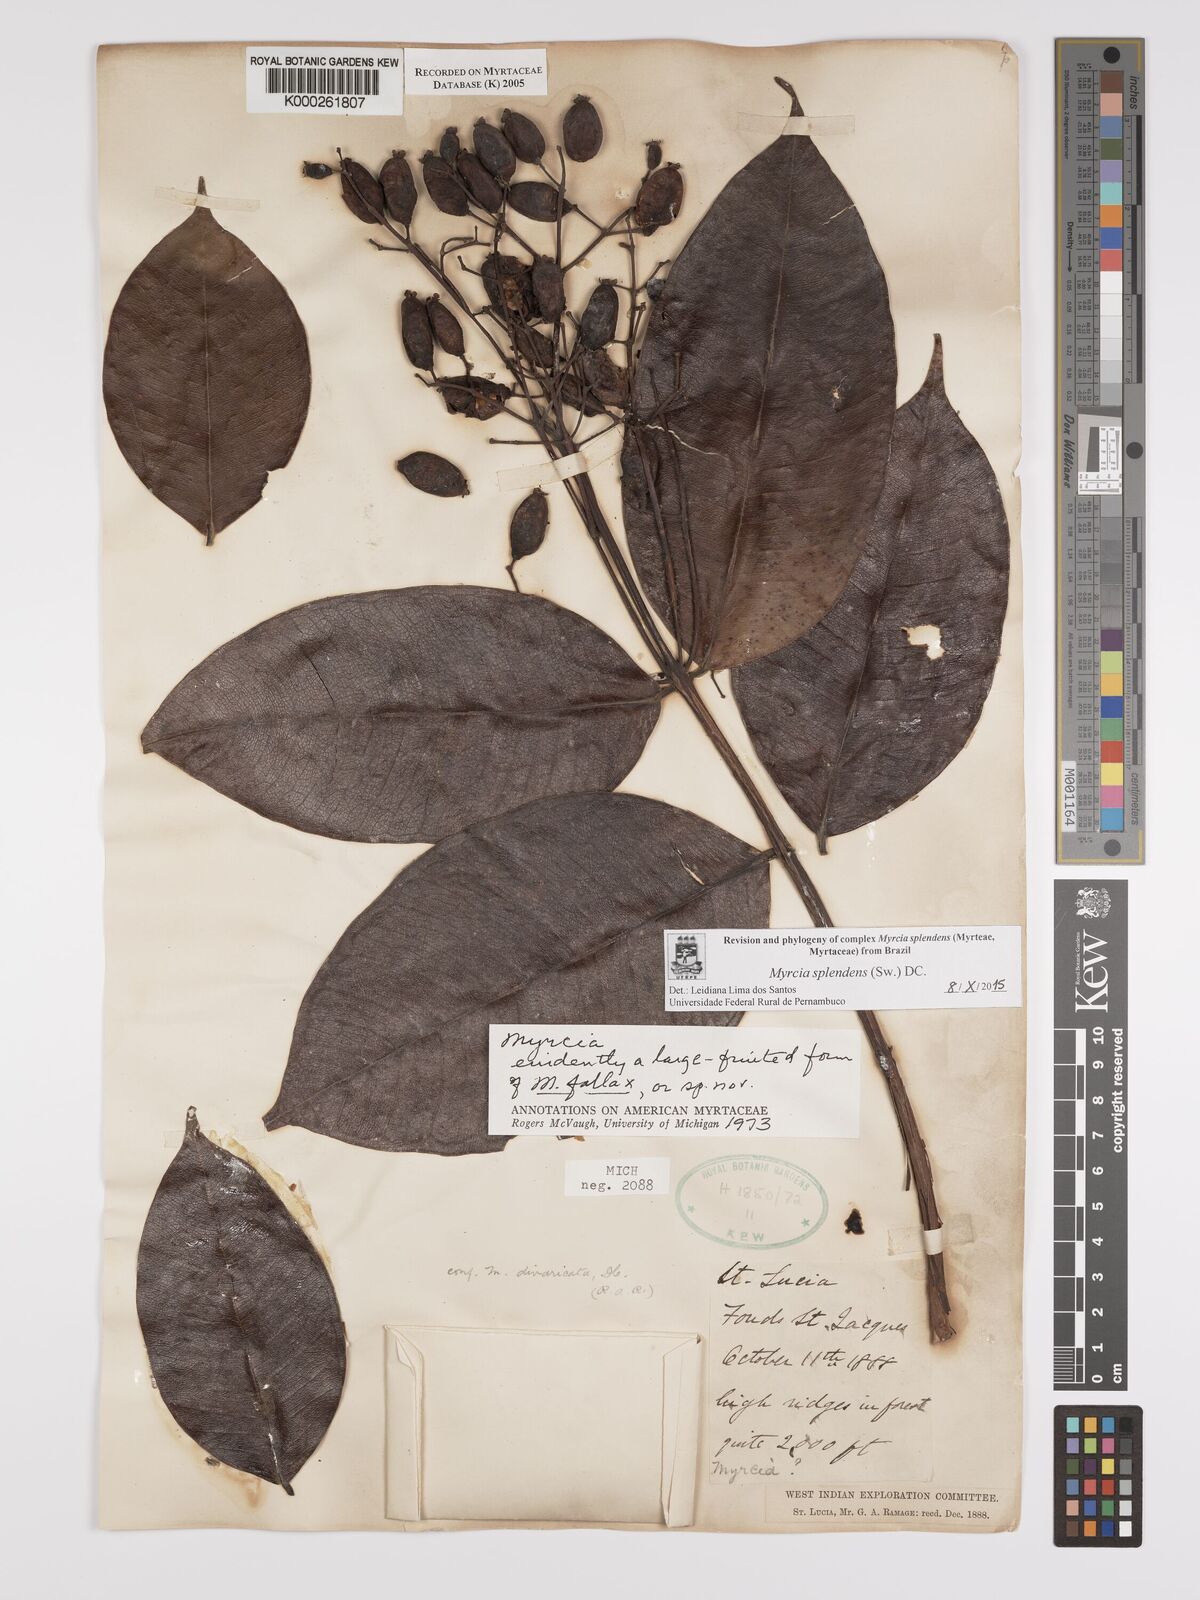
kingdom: Plantae
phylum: Tracheophyta
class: Magnoliopsida
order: Myrtales
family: Myrtaceae
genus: Myrcia
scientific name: Myrcia splendens
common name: Surinam cherry
